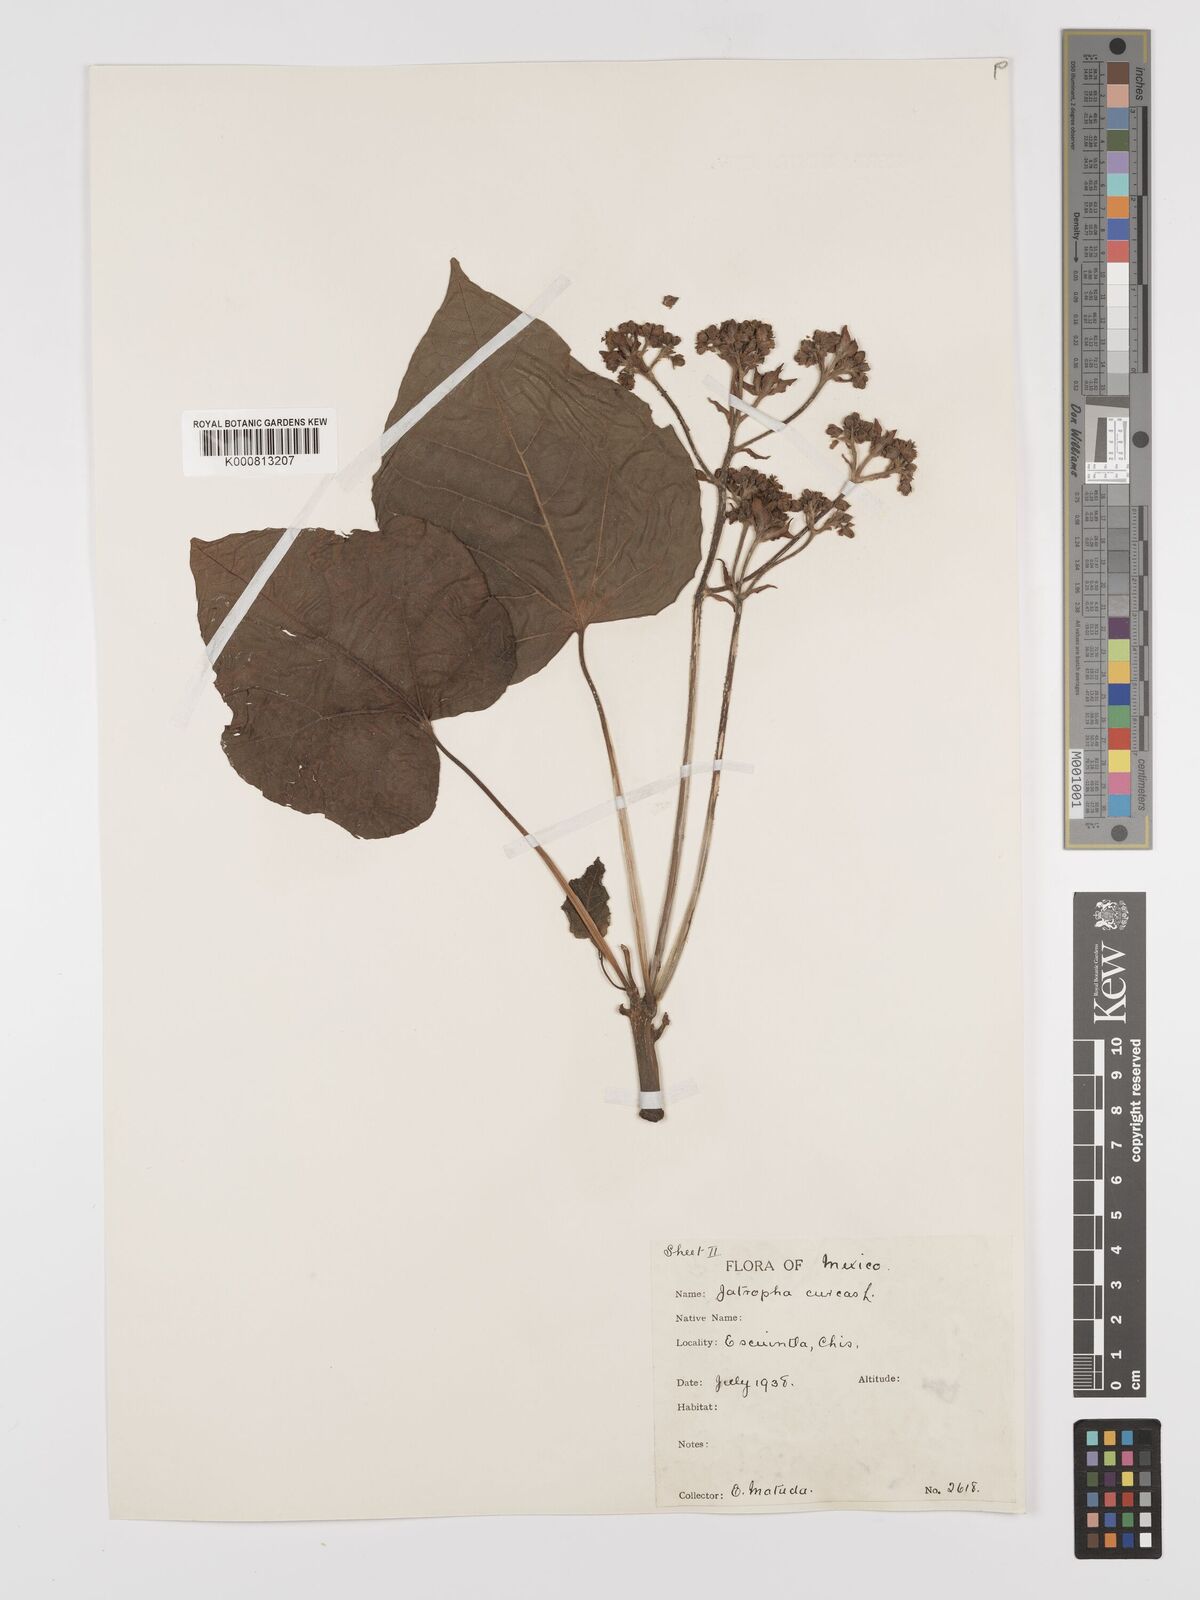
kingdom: Plantae
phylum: Tracheophyta
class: Magnoliopsida
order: Malpighiales
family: Euphorbiaceae
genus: Jatropha
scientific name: Jatropha curcas
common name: Barbados nut
